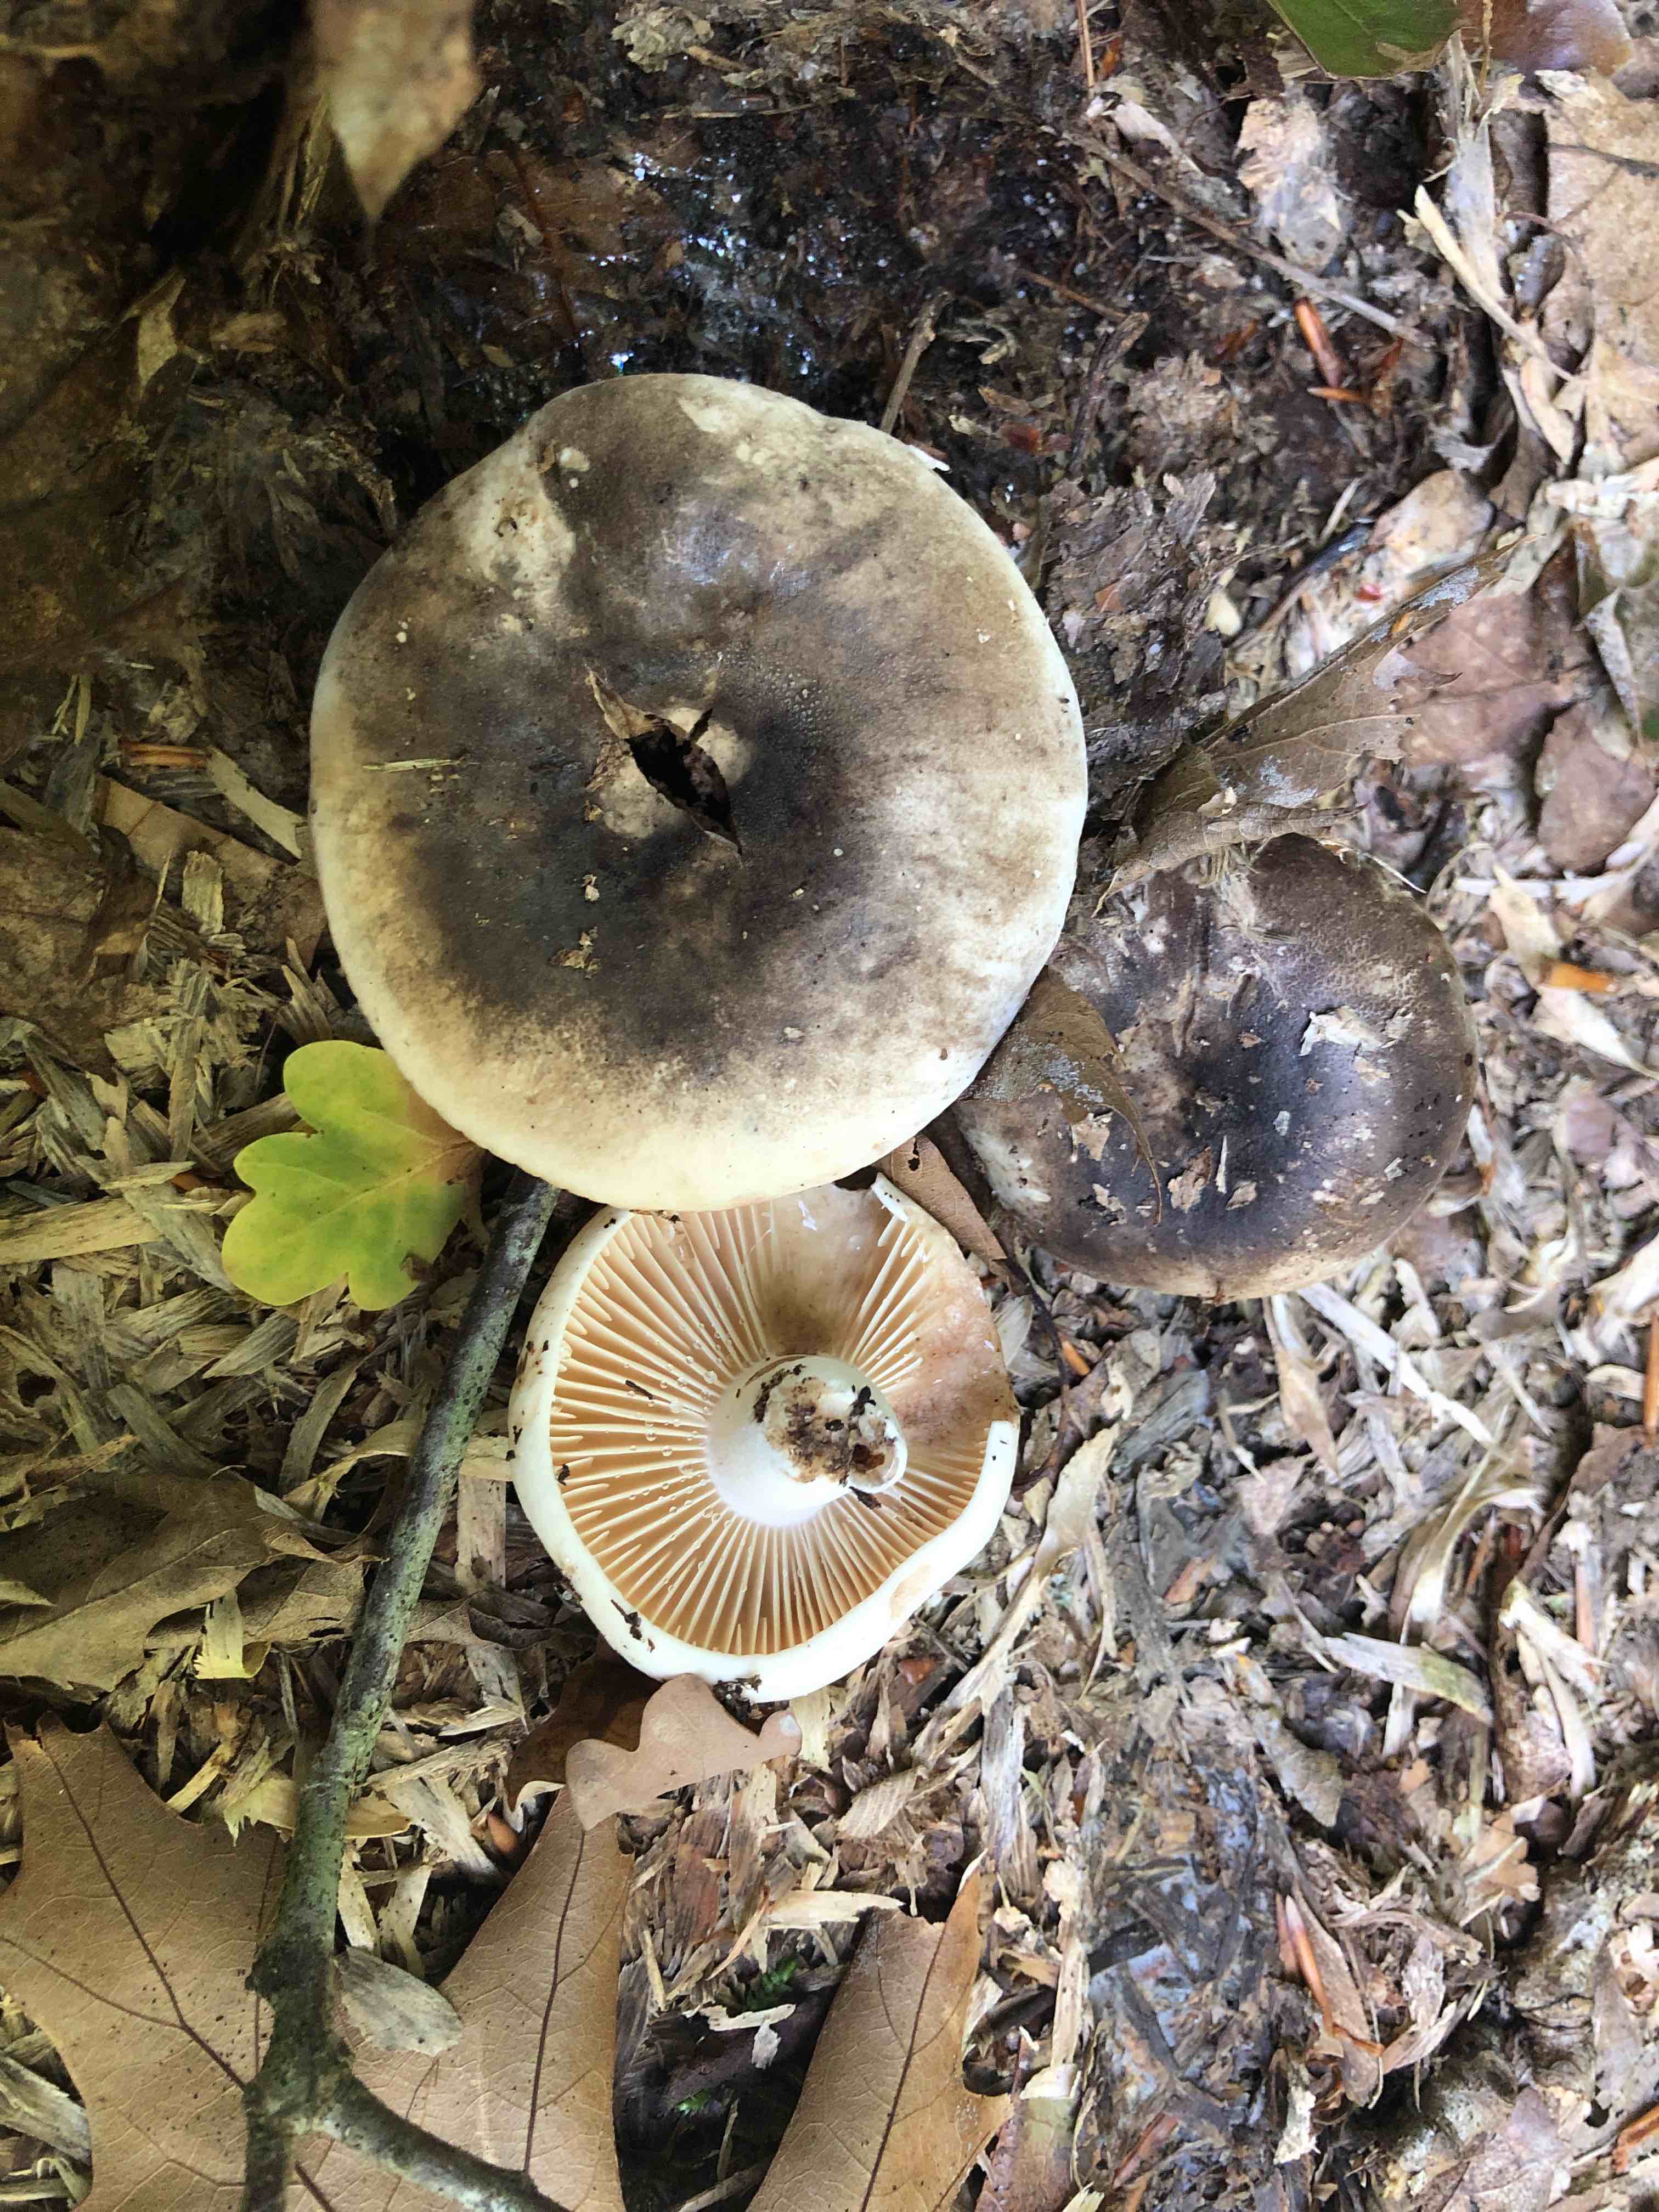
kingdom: Fungi
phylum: Basidiomycota
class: Agaricomycetes
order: Russulales
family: Russulaceae
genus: Russula
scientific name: Russula adusta
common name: sværtende skørhat
